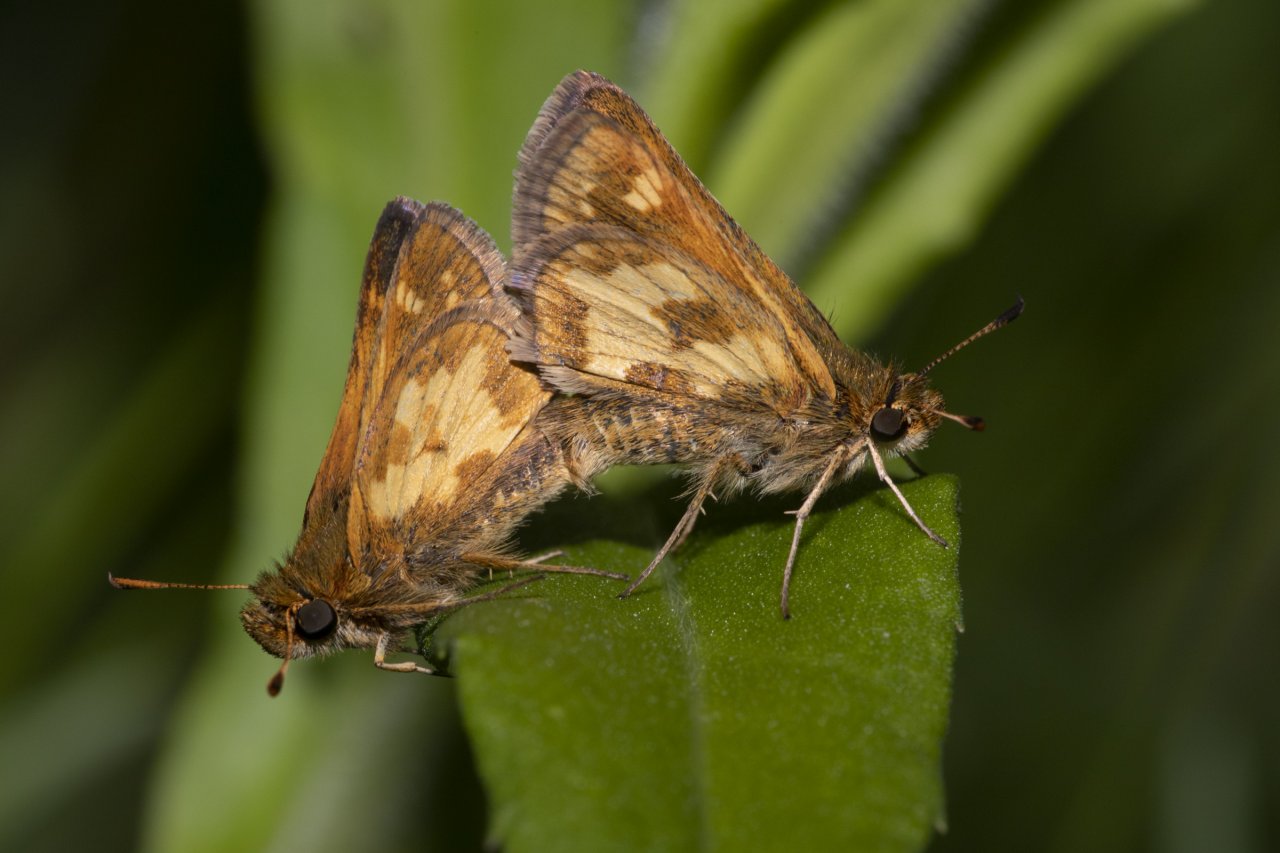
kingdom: Animalia
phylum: Arthropoda
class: Insecta
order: Lepidoptera
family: Hesperiidae
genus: Polites
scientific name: Polites coras
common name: Peck's Skipper
